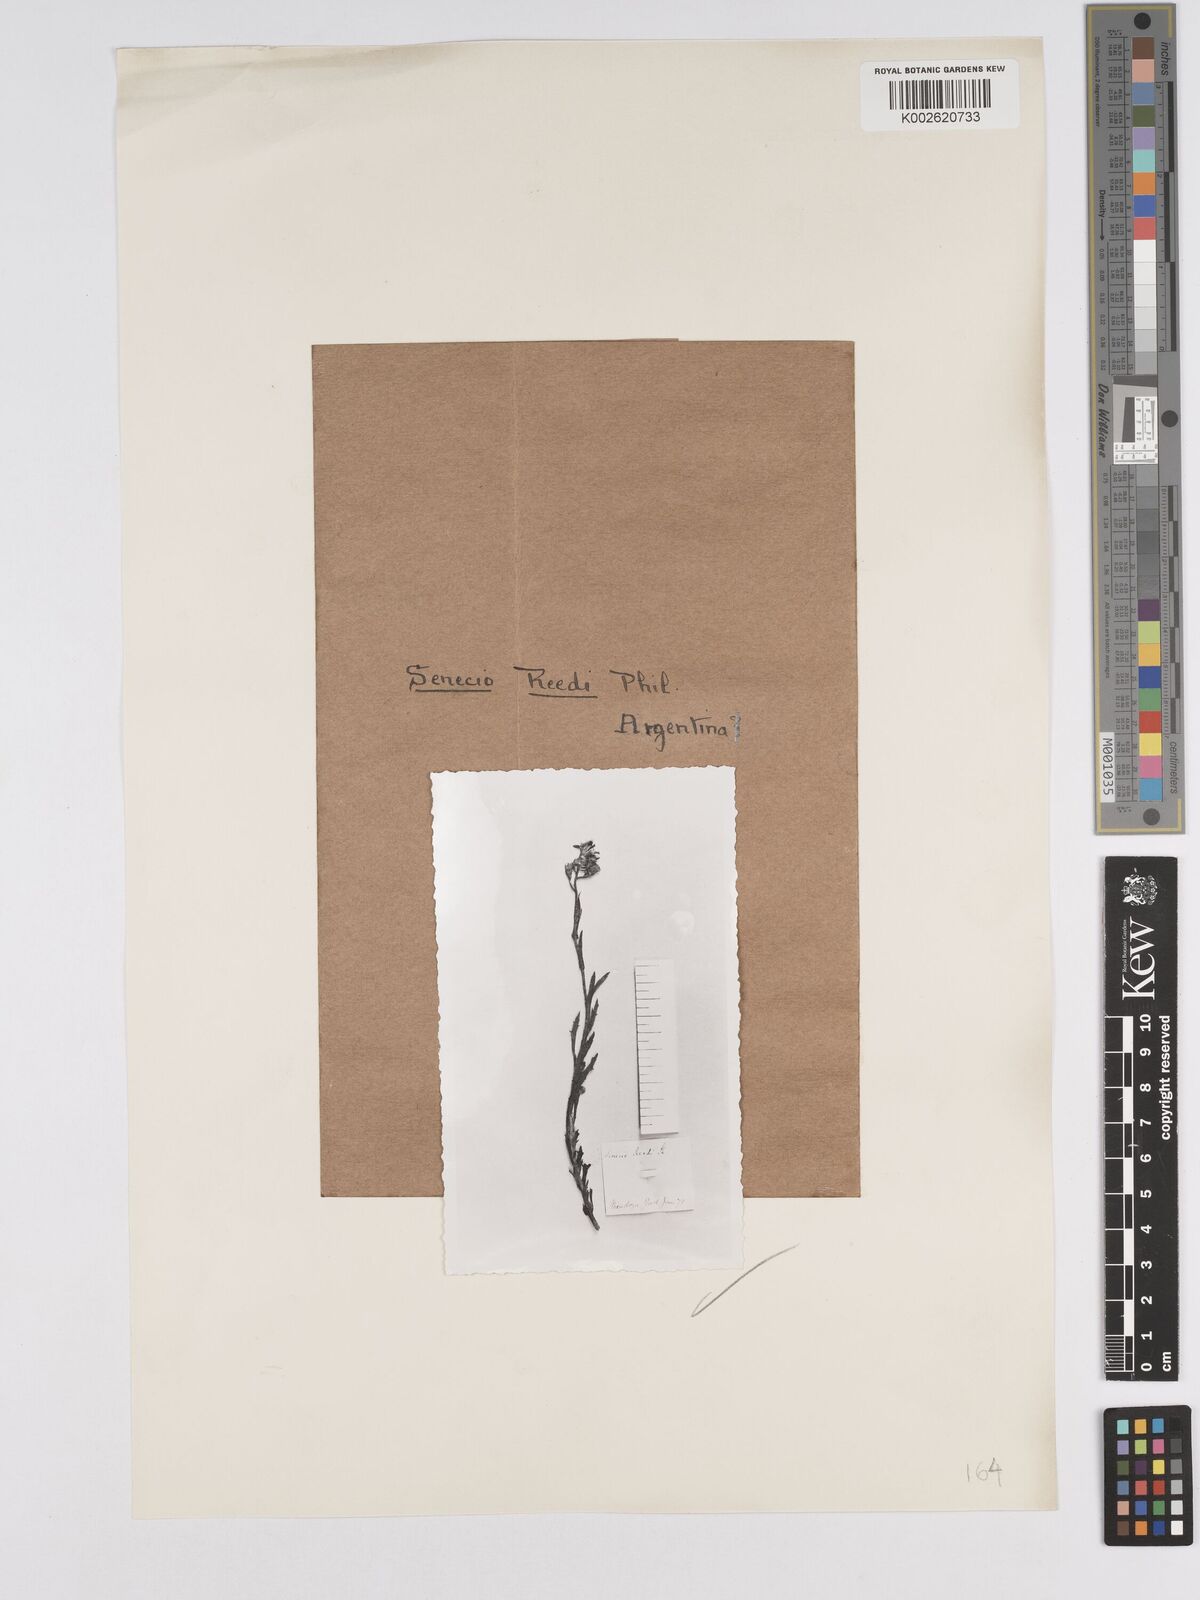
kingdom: Plantae
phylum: Tracheophyta
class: Magnoliopsida
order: Asterales
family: Asteraceae
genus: Senecio
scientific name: Senecio reedii
